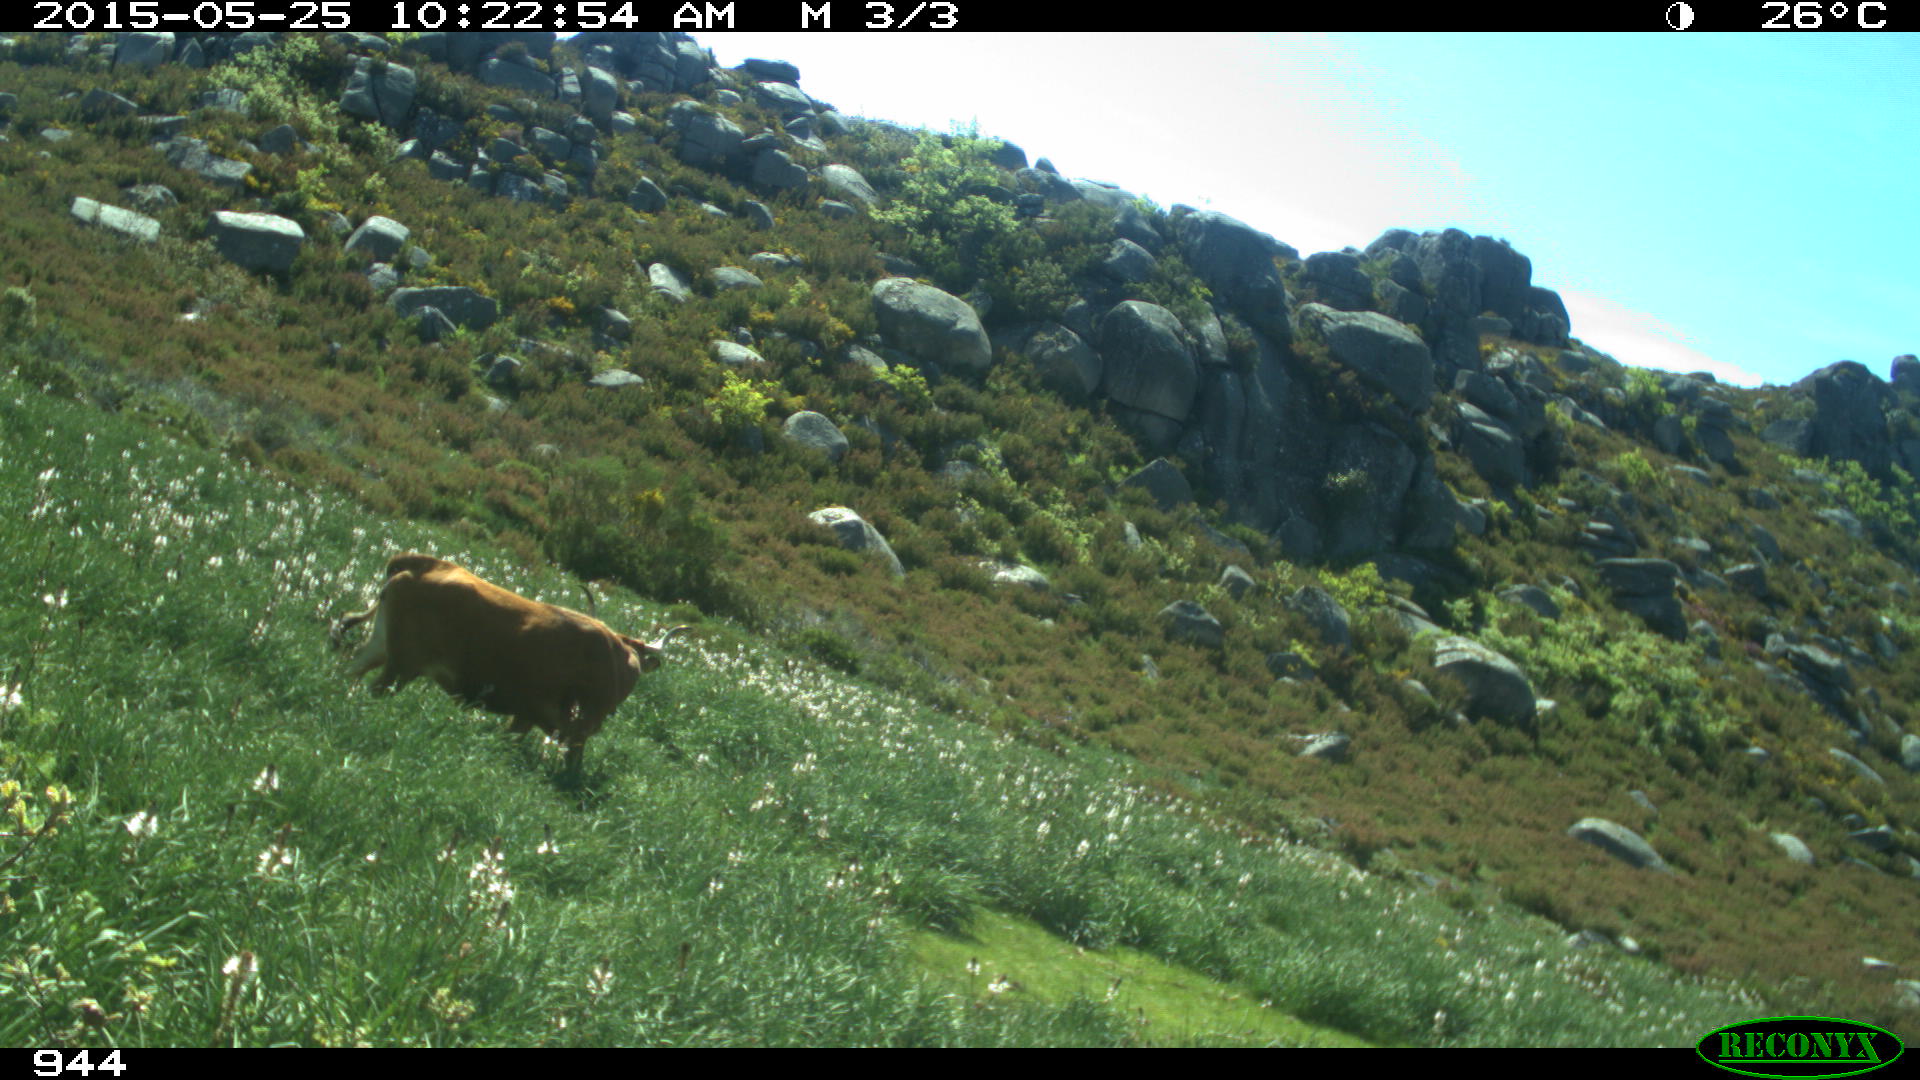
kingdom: Animalia
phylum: Chordata
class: Mammalia
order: Artiodactyla
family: Bovidae
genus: Bos
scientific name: Bos taurus
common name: Domesticated cattle
